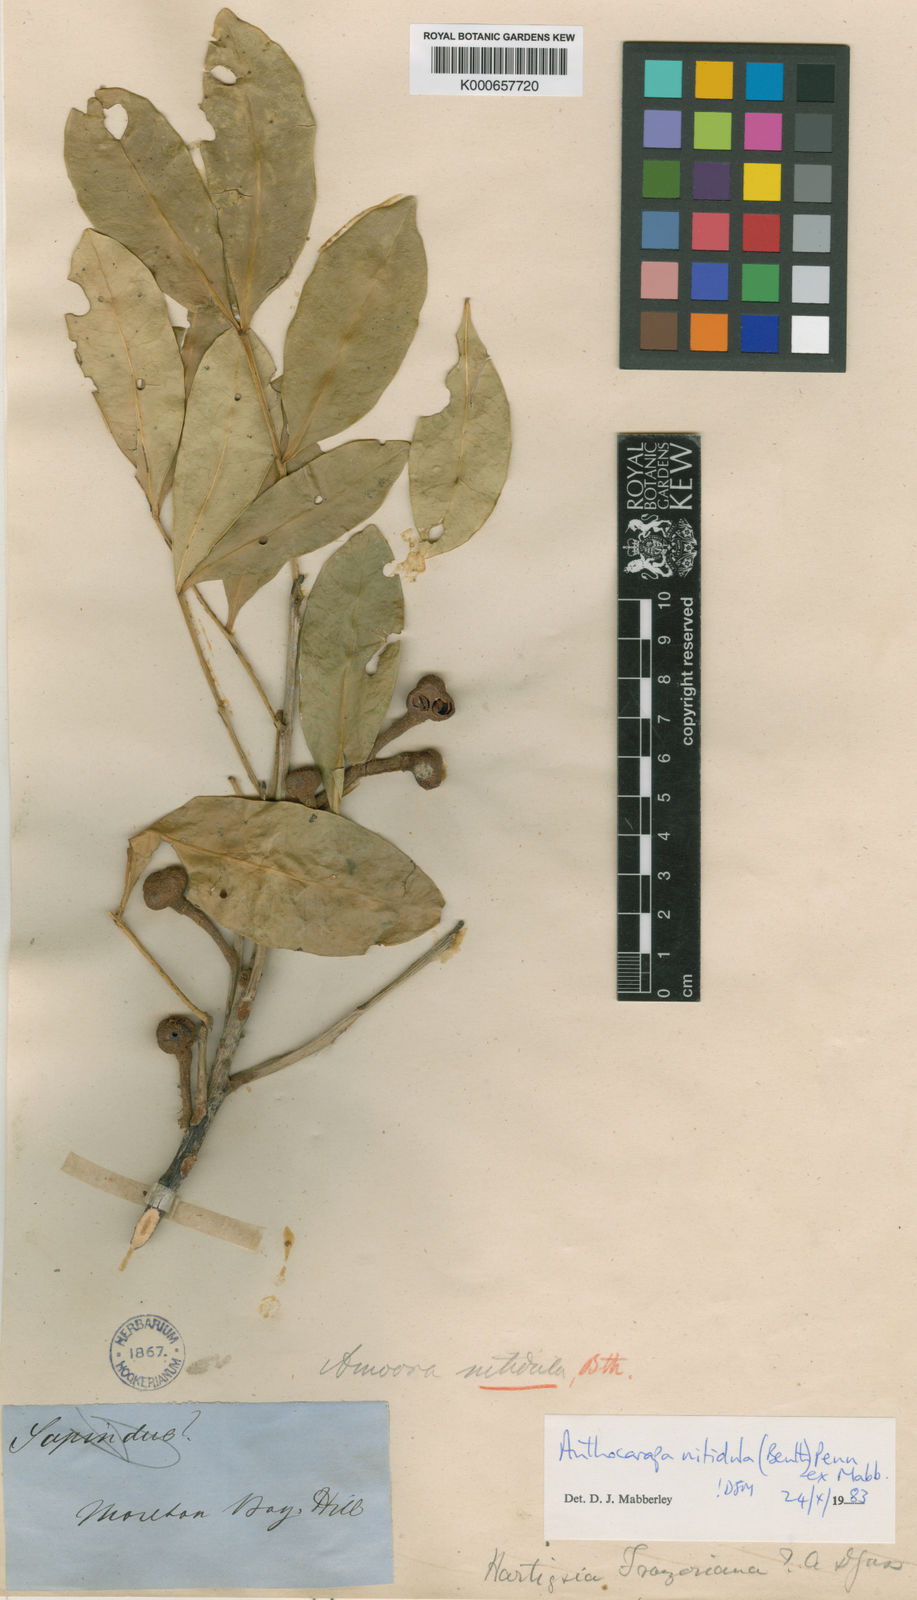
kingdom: Plantae
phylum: Tracheophyta
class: Magnoliopsida
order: Sapindales
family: Meliaceae
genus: Anthocarapa
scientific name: Anthocarapa nitidula
